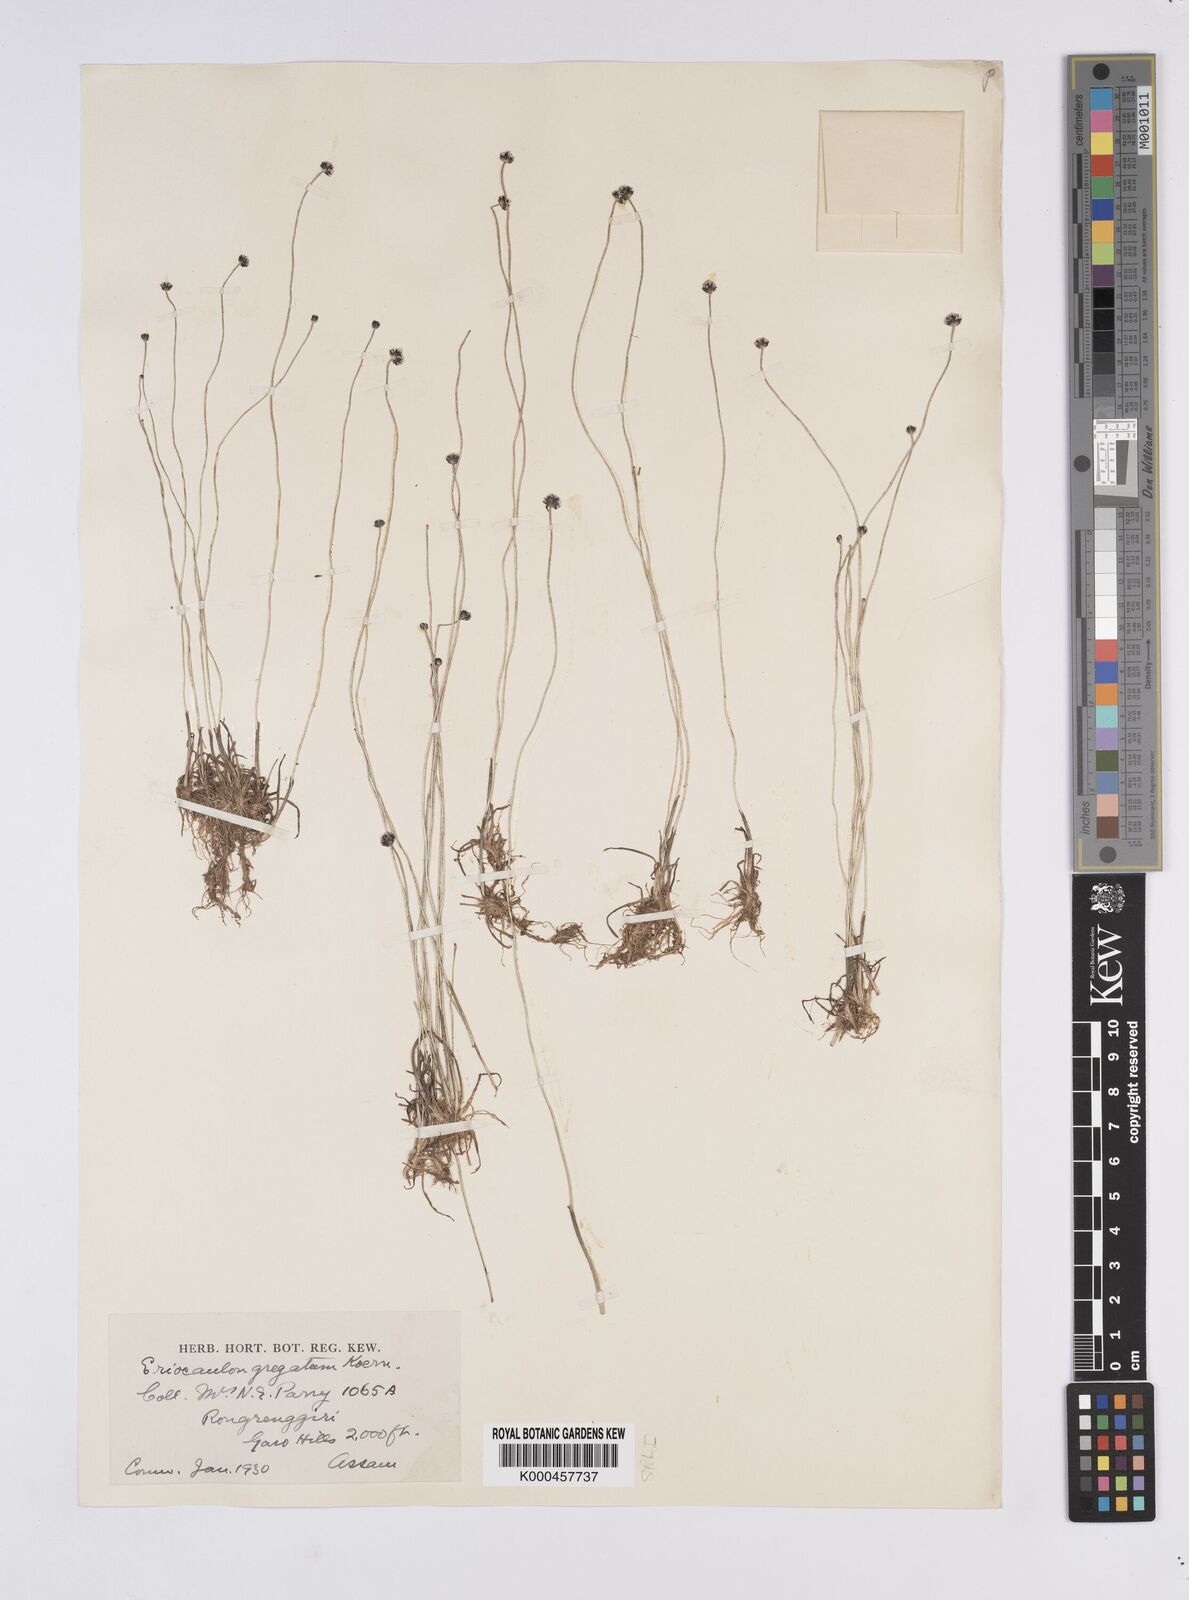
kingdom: Plantae
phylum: Tracheophyta
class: Liliopsida
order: Poales
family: Eriocaulaceae
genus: Eriocaulon
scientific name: Eriocaulon
